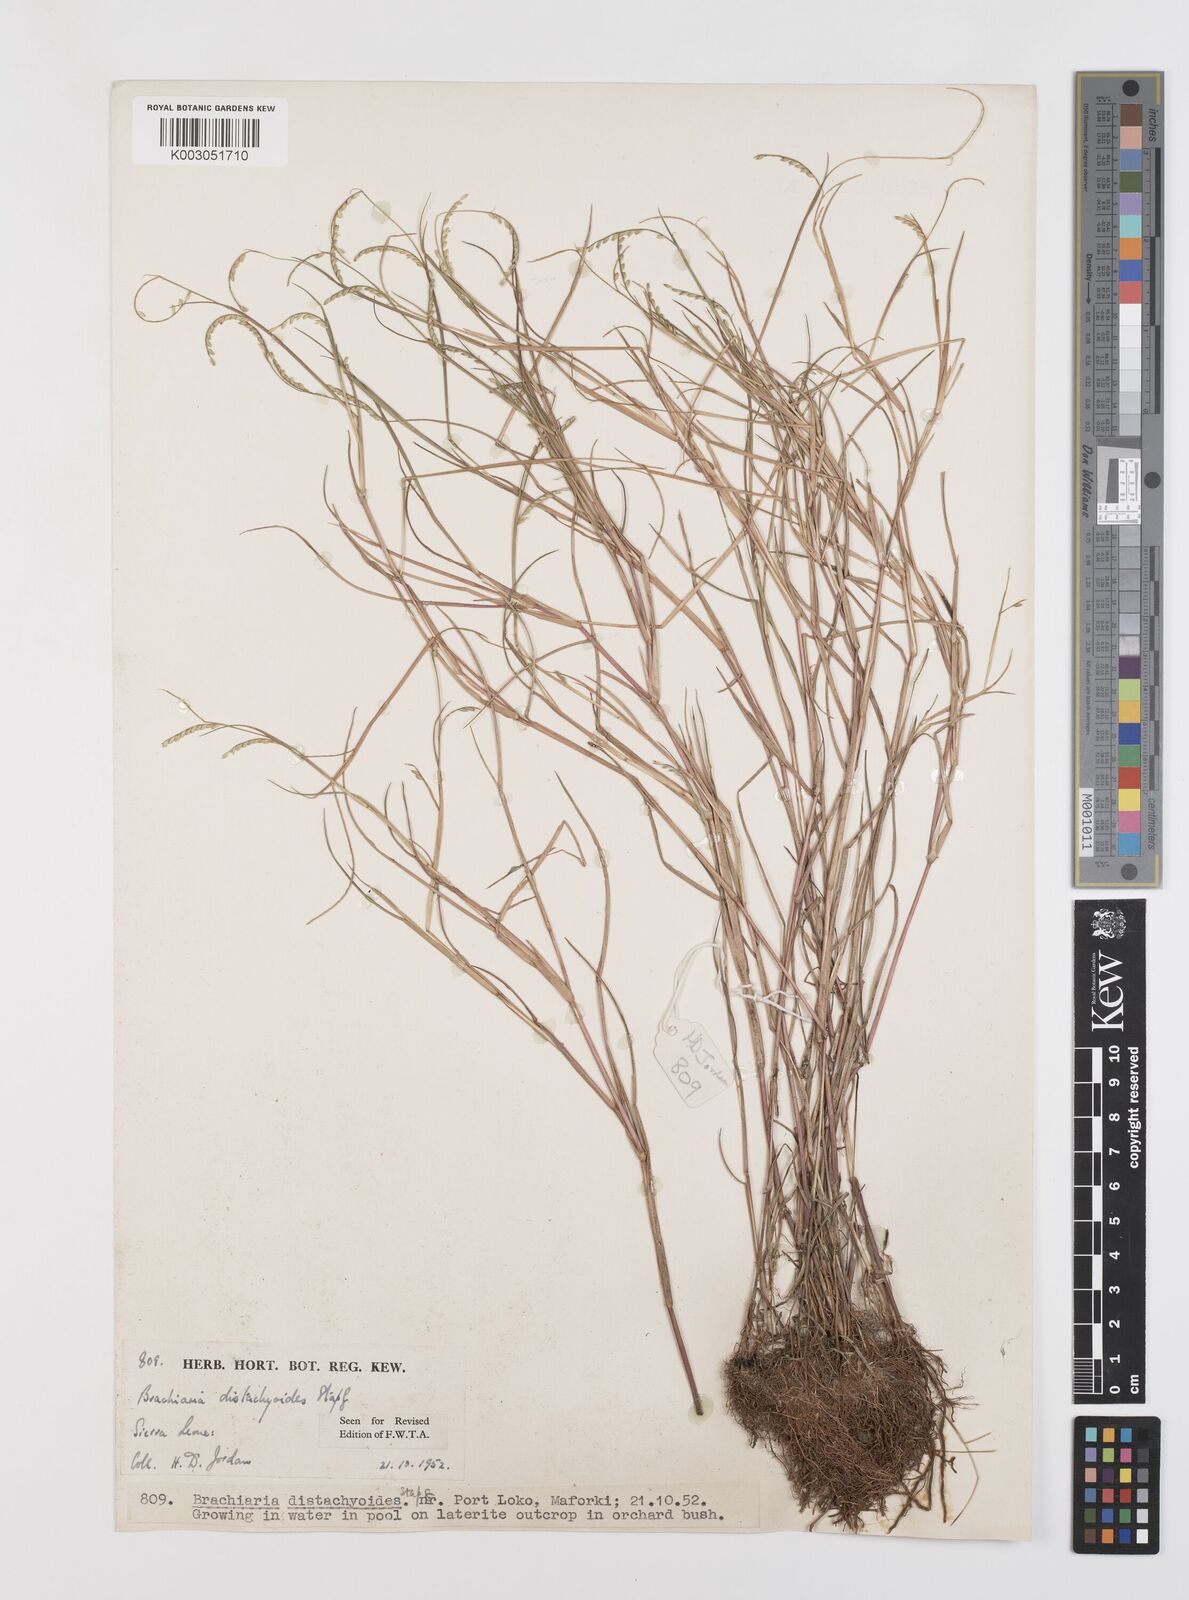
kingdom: Plantae
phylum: Tracheophyta
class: Liliopsida
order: Poales
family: Poaceae
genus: Urochloa
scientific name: Urochloa distachyoides
